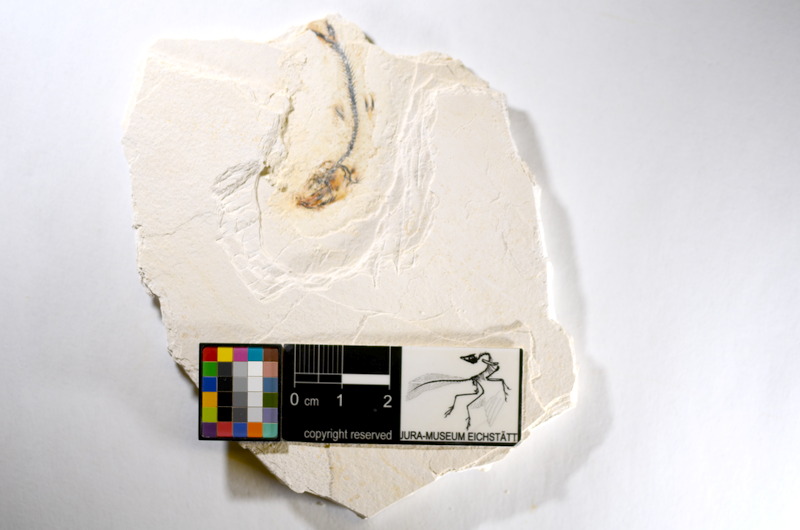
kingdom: Animalia
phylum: Chordata
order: Salmoniformes
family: Orthogonikleithridae
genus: Orthogonikleithrus
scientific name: Orthogonikleithrus hoelli
